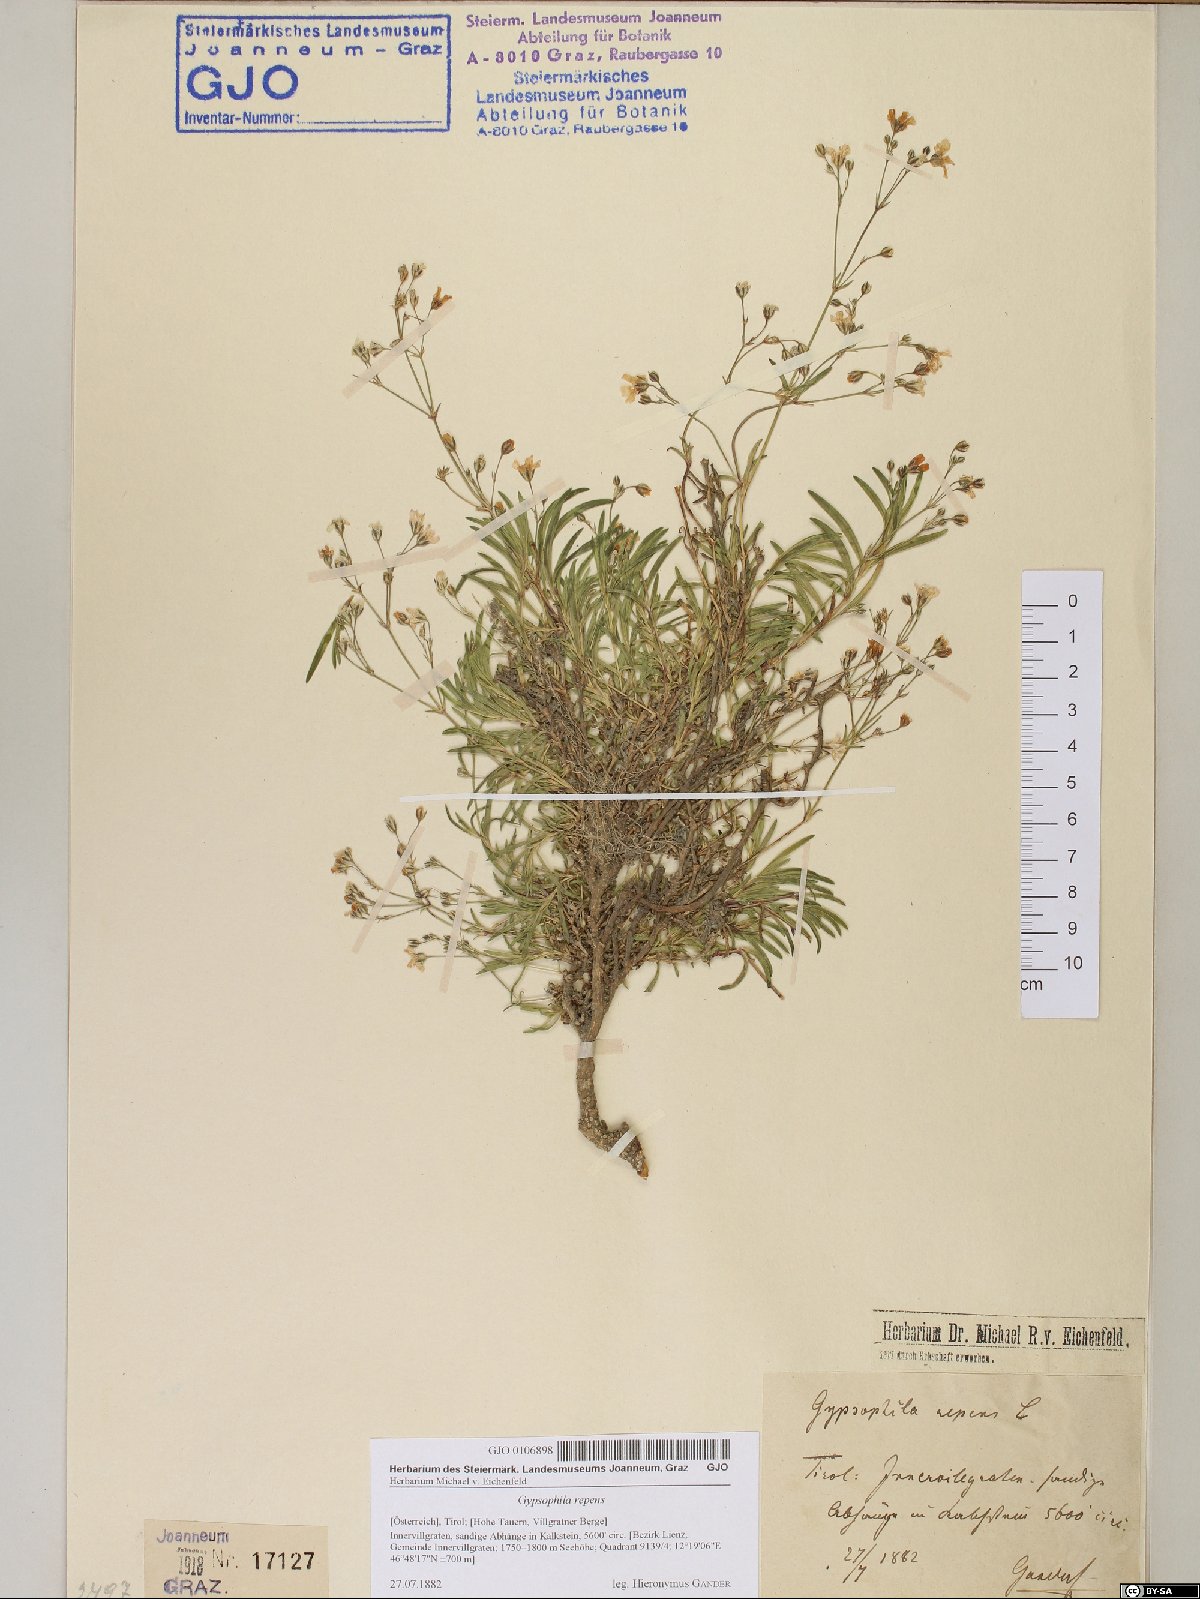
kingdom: Plantae
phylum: Tracheophyta
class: Magnoliopsida
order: Caryophyllales
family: Caryophyllaceae
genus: Gypsophila
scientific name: Gypsophila repens
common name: Creeping baby's-breath
